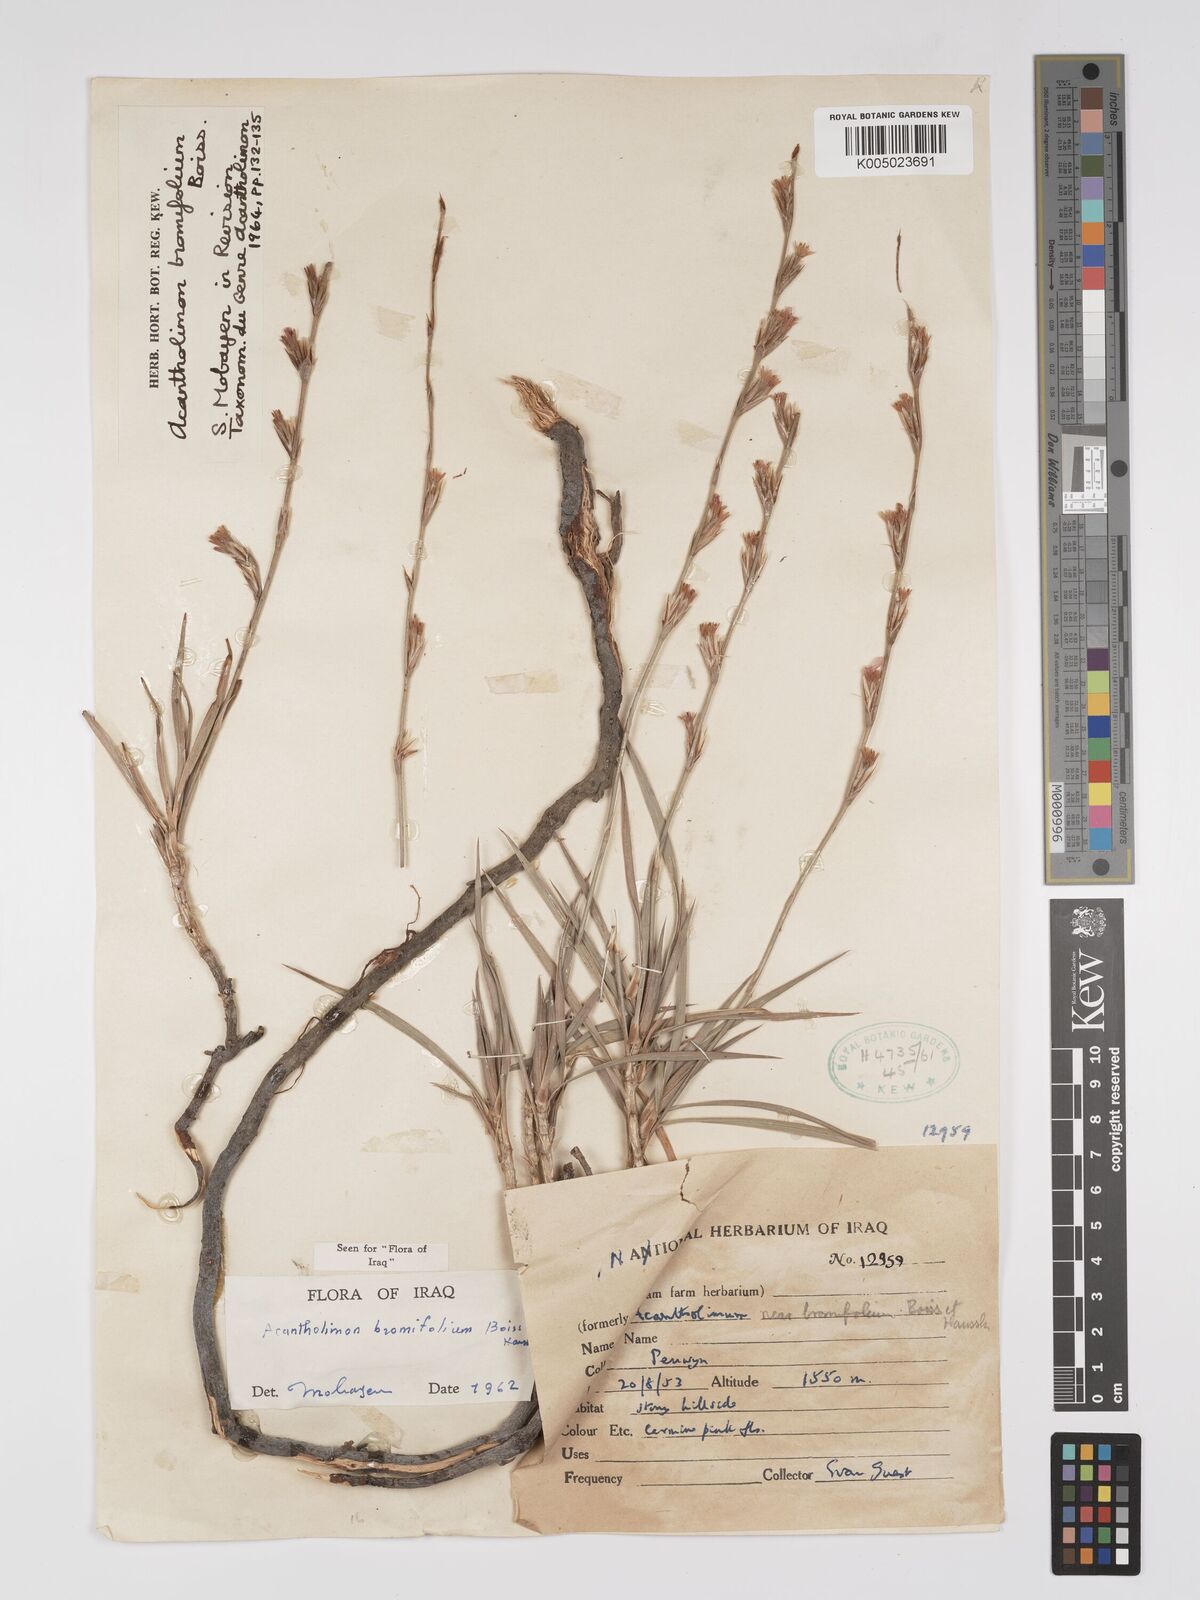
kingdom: Plantae
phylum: Tracheophyta
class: Magnoliopsida
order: Caryophyllales
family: Plumbaginaceae
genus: Acantholimon
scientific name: Acantholimon bromifolium
